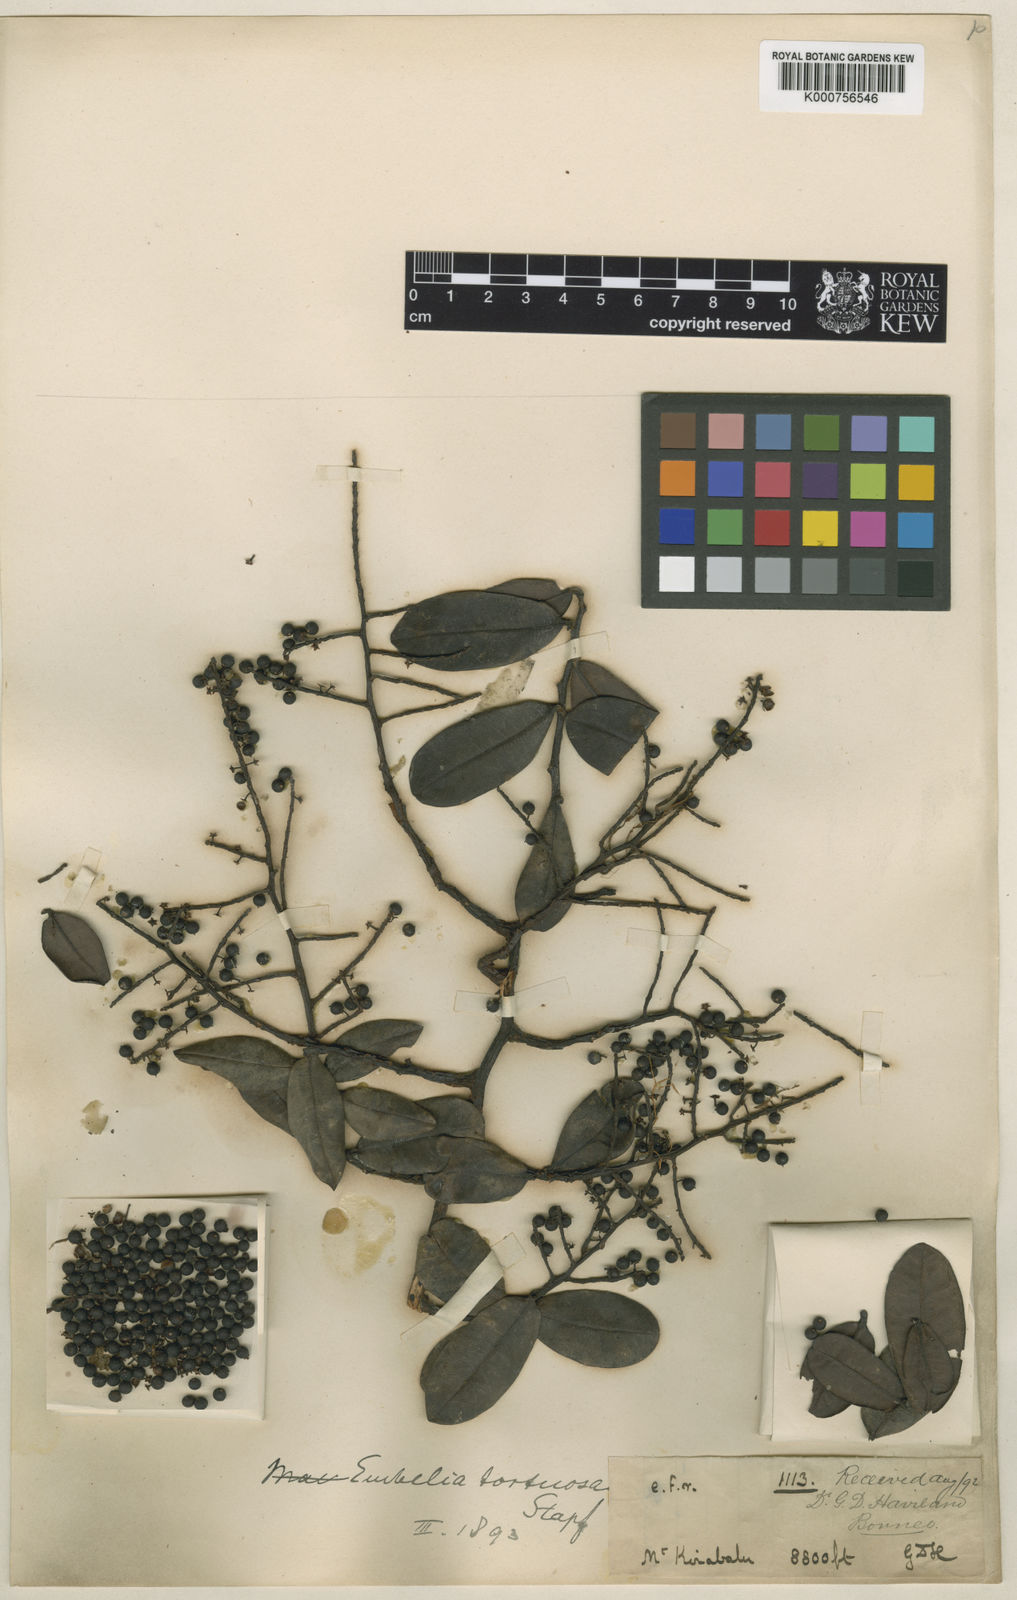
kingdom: Plantae
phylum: Tracheophyta
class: Magnoliopsida
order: Ericales
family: Primulaceae
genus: Embelia
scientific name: Embelia tortuosa
